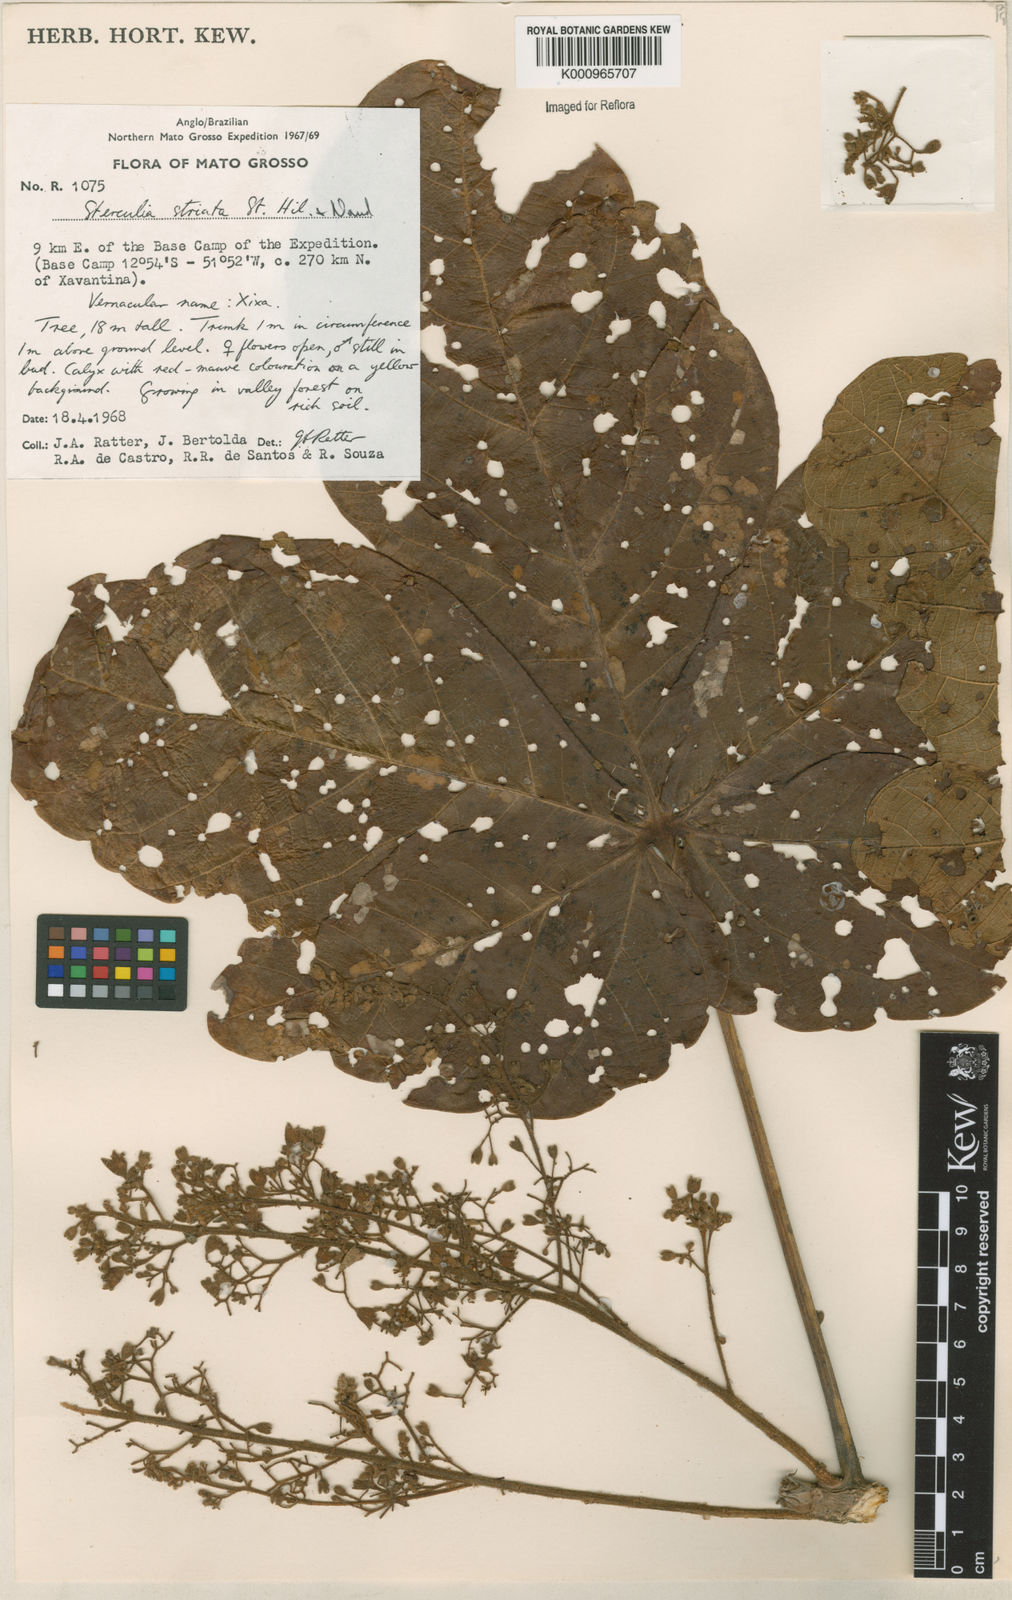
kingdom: Plantae
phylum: Tracheophyta
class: Magnoliopsida
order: Malvales
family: Malvaceae
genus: Sterculia
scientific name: Sterculia striata
